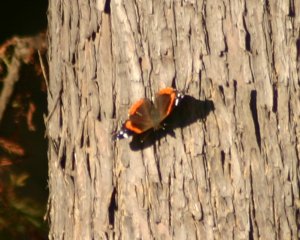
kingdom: Animalia
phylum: Arthropoda
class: Insecta
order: Lepidoptera
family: Nymphalidae
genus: Vanessa
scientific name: Vanessa atalanta
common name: Red Admiral
